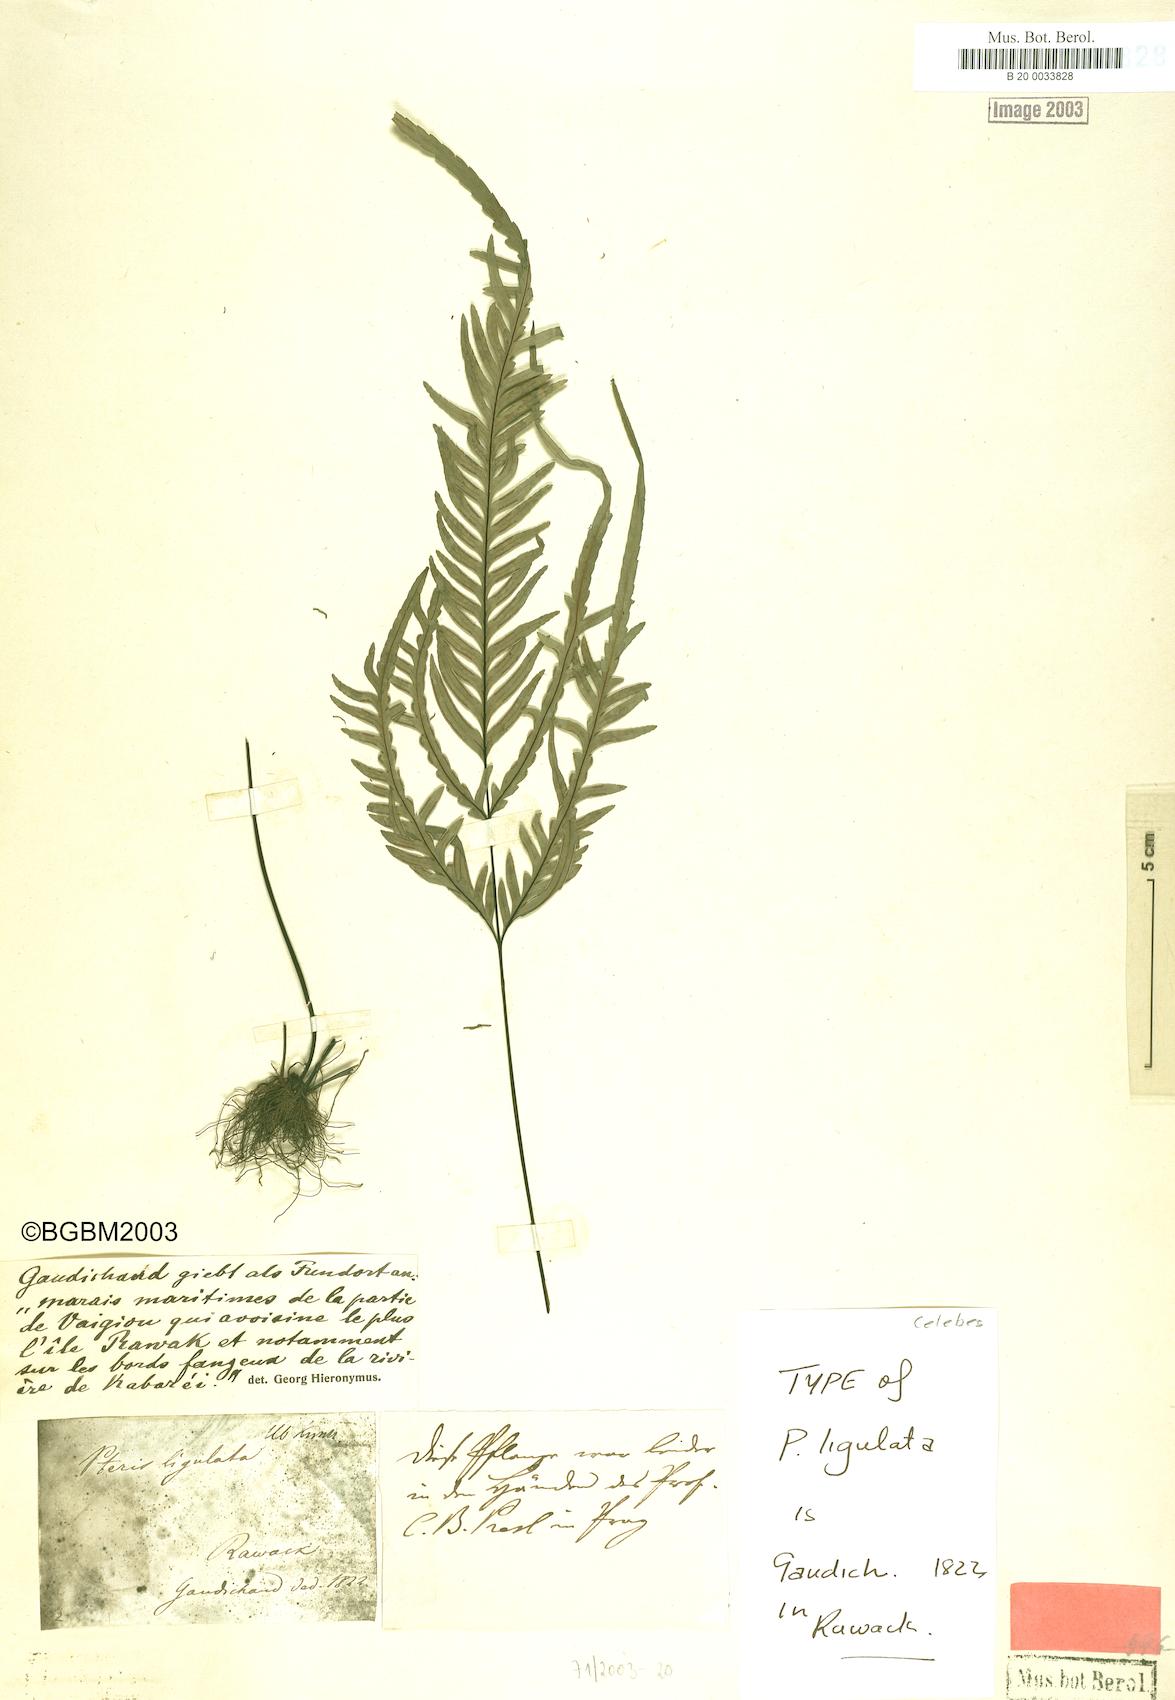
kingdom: Plantae
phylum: Tracheophyta
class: Polypodiopsida
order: Polypodiales
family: Pteridaceae
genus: Pteris
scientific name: Pteris ligulata
